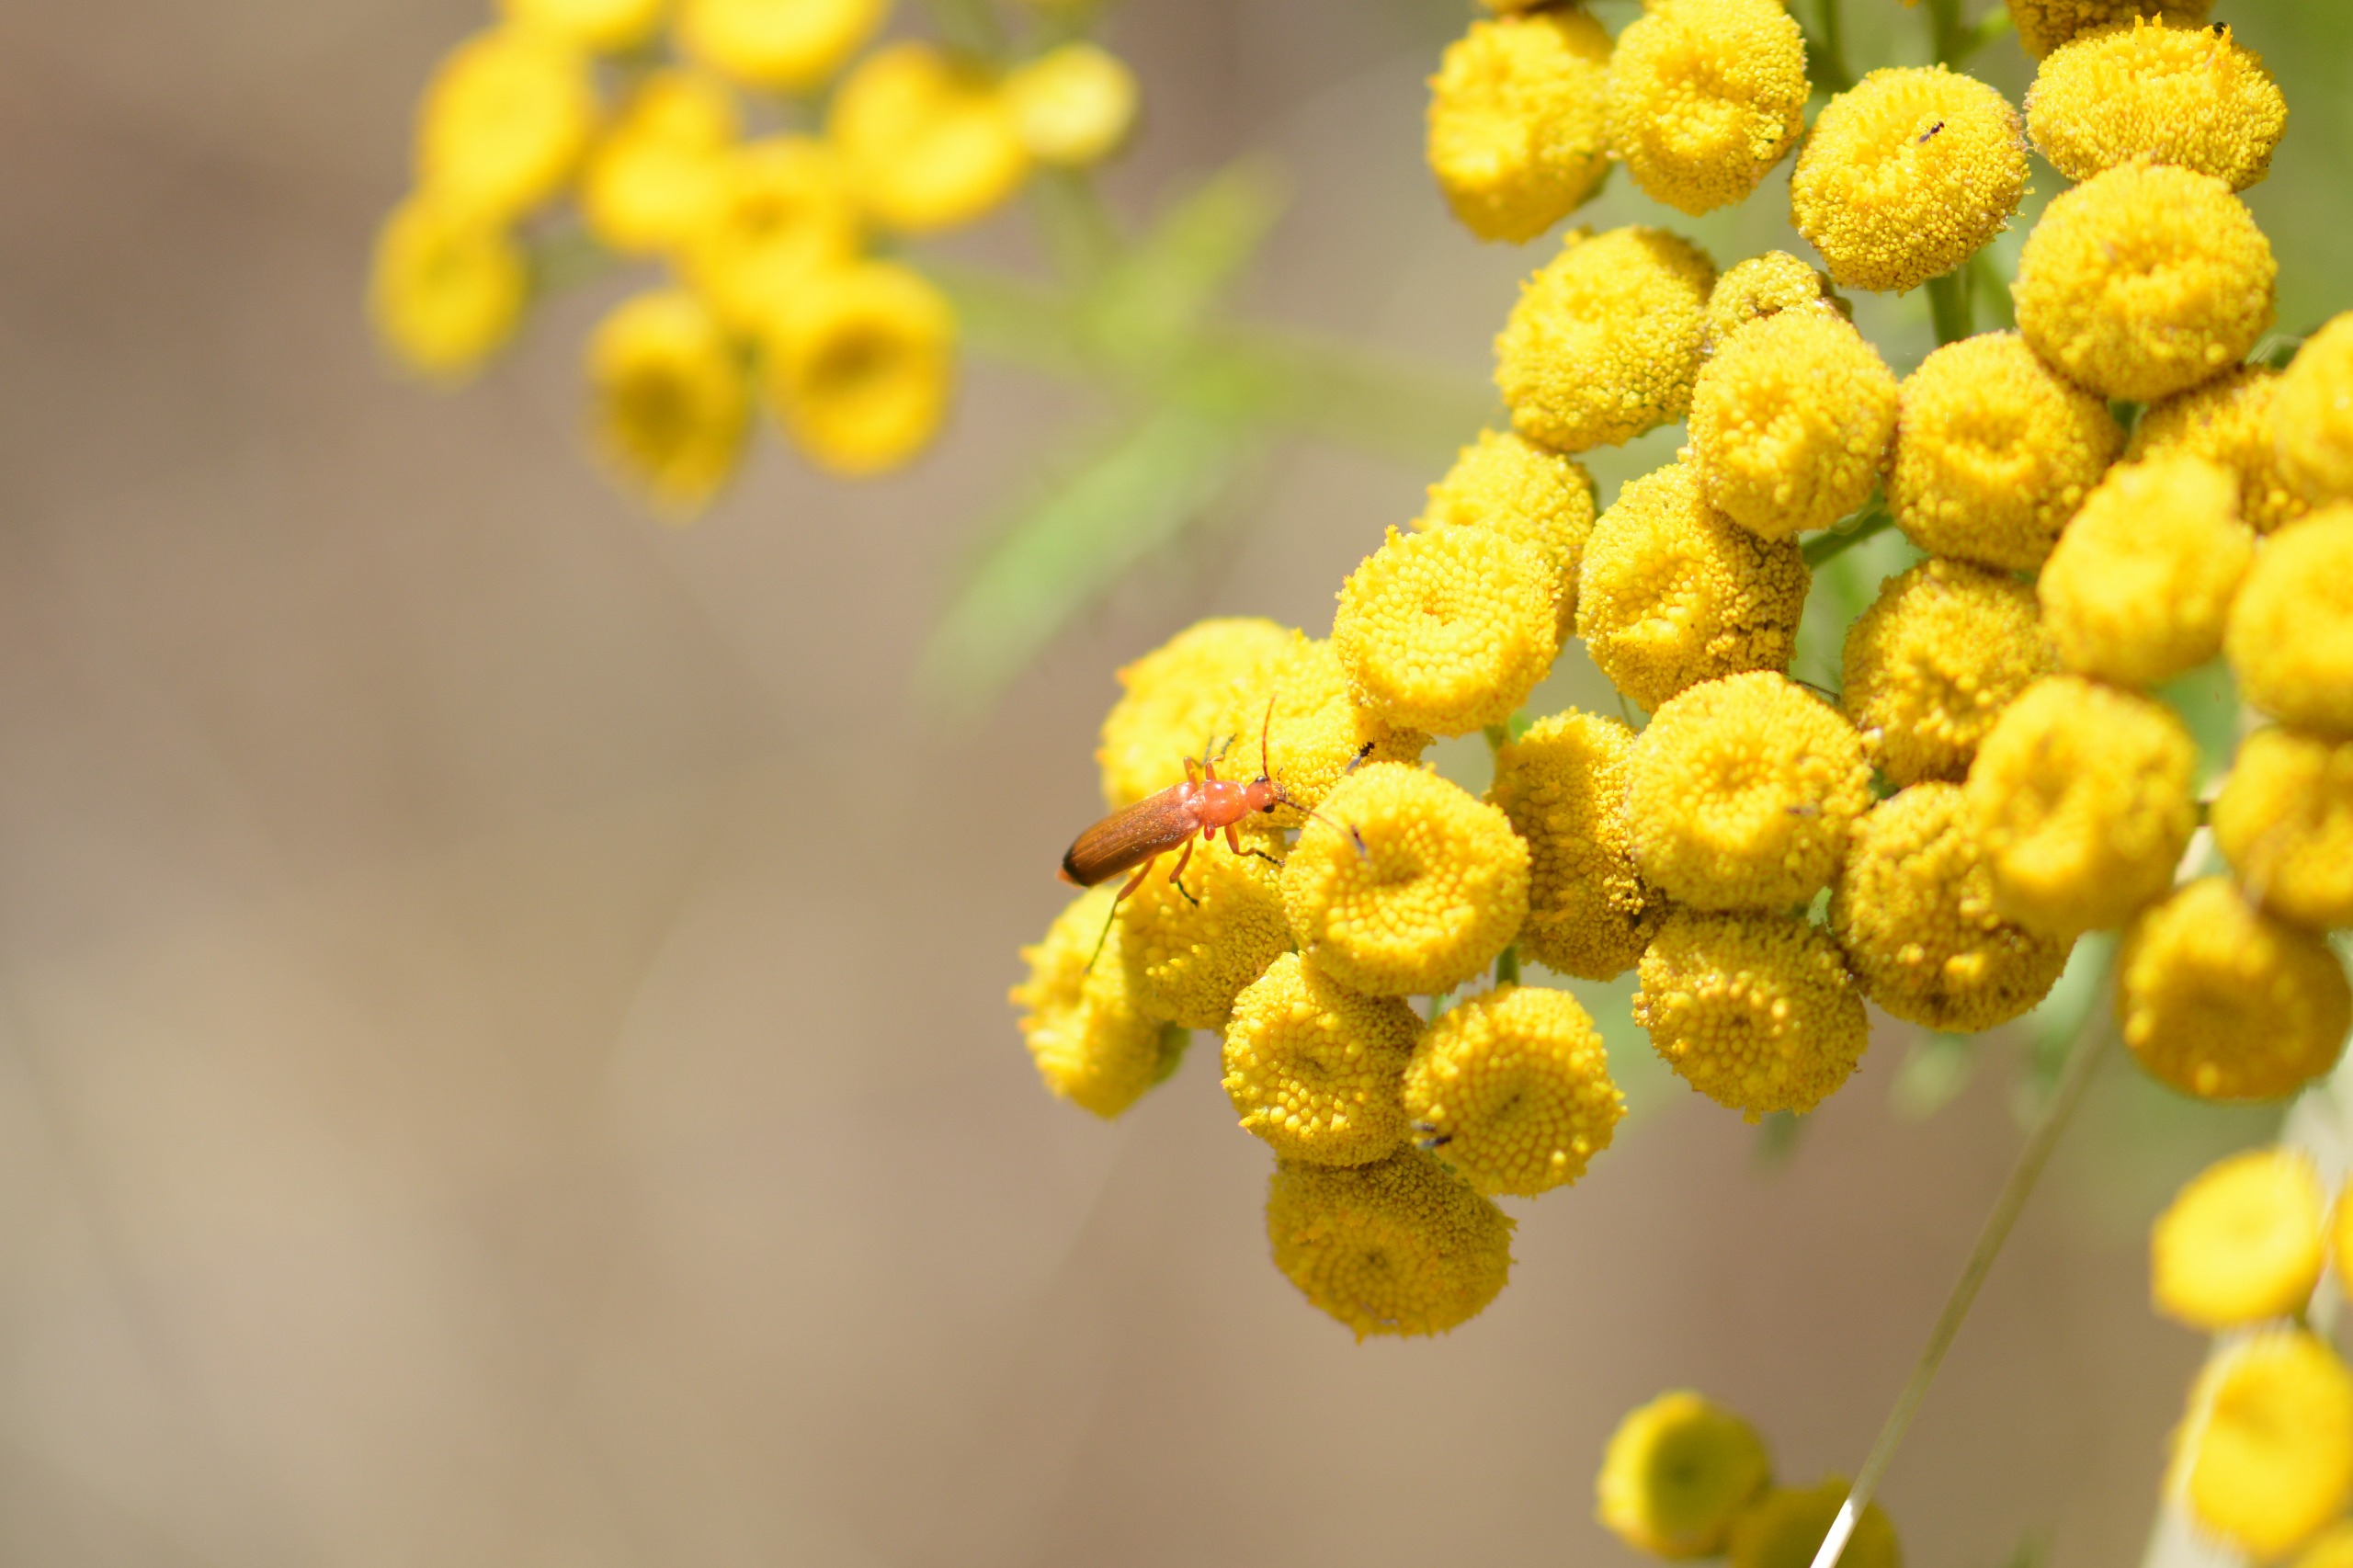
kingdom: Animalia
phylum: Arthropoda
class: Insecta
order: Coleoptera
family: Cantharidae
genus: Rhagonycha
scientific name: Rhagonycha fulva
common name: Præstebille
